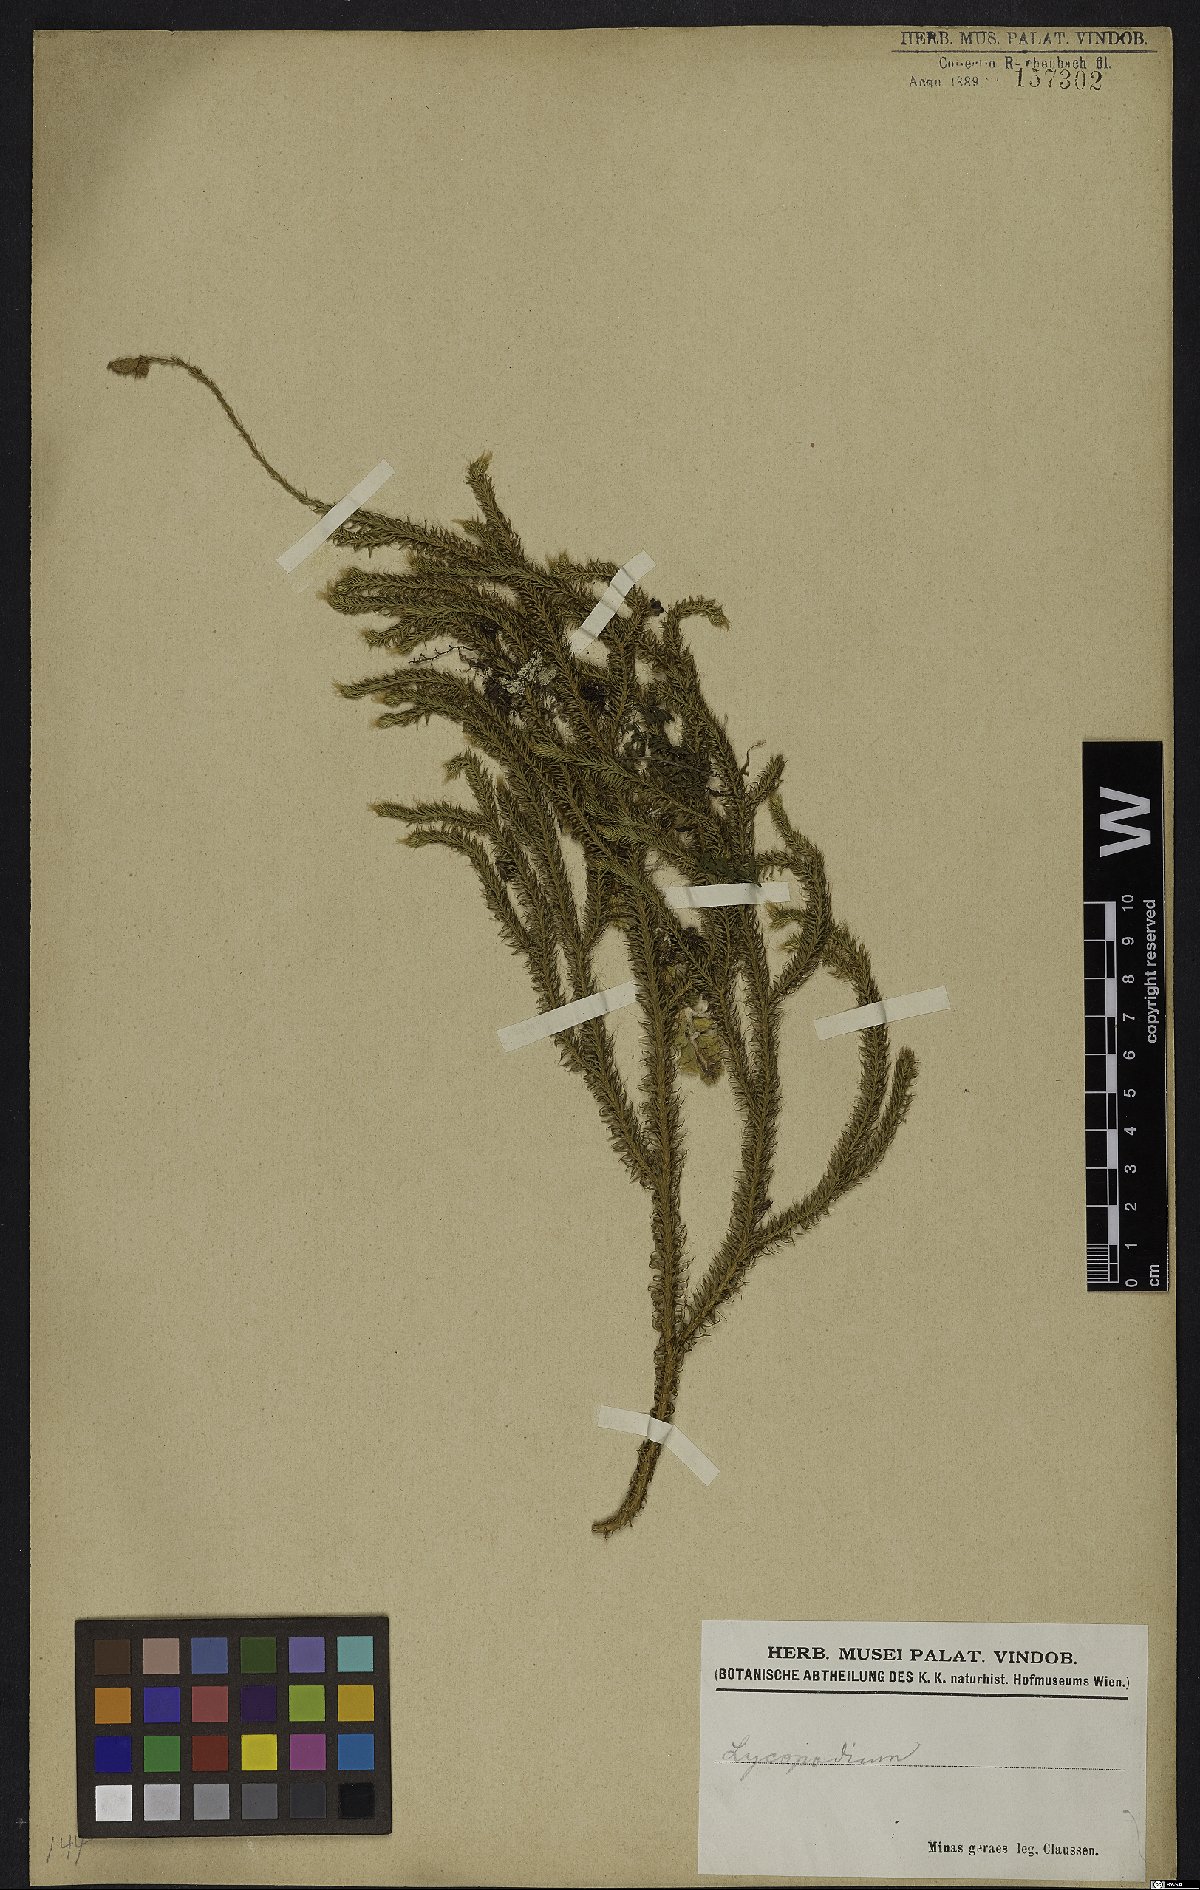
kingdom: Plantae
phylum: Tracheophyta
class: Lycopodiopsida
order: Lycopodiales
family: Lycopodiaceae
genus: Lycopodium
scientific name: Lycopodium
